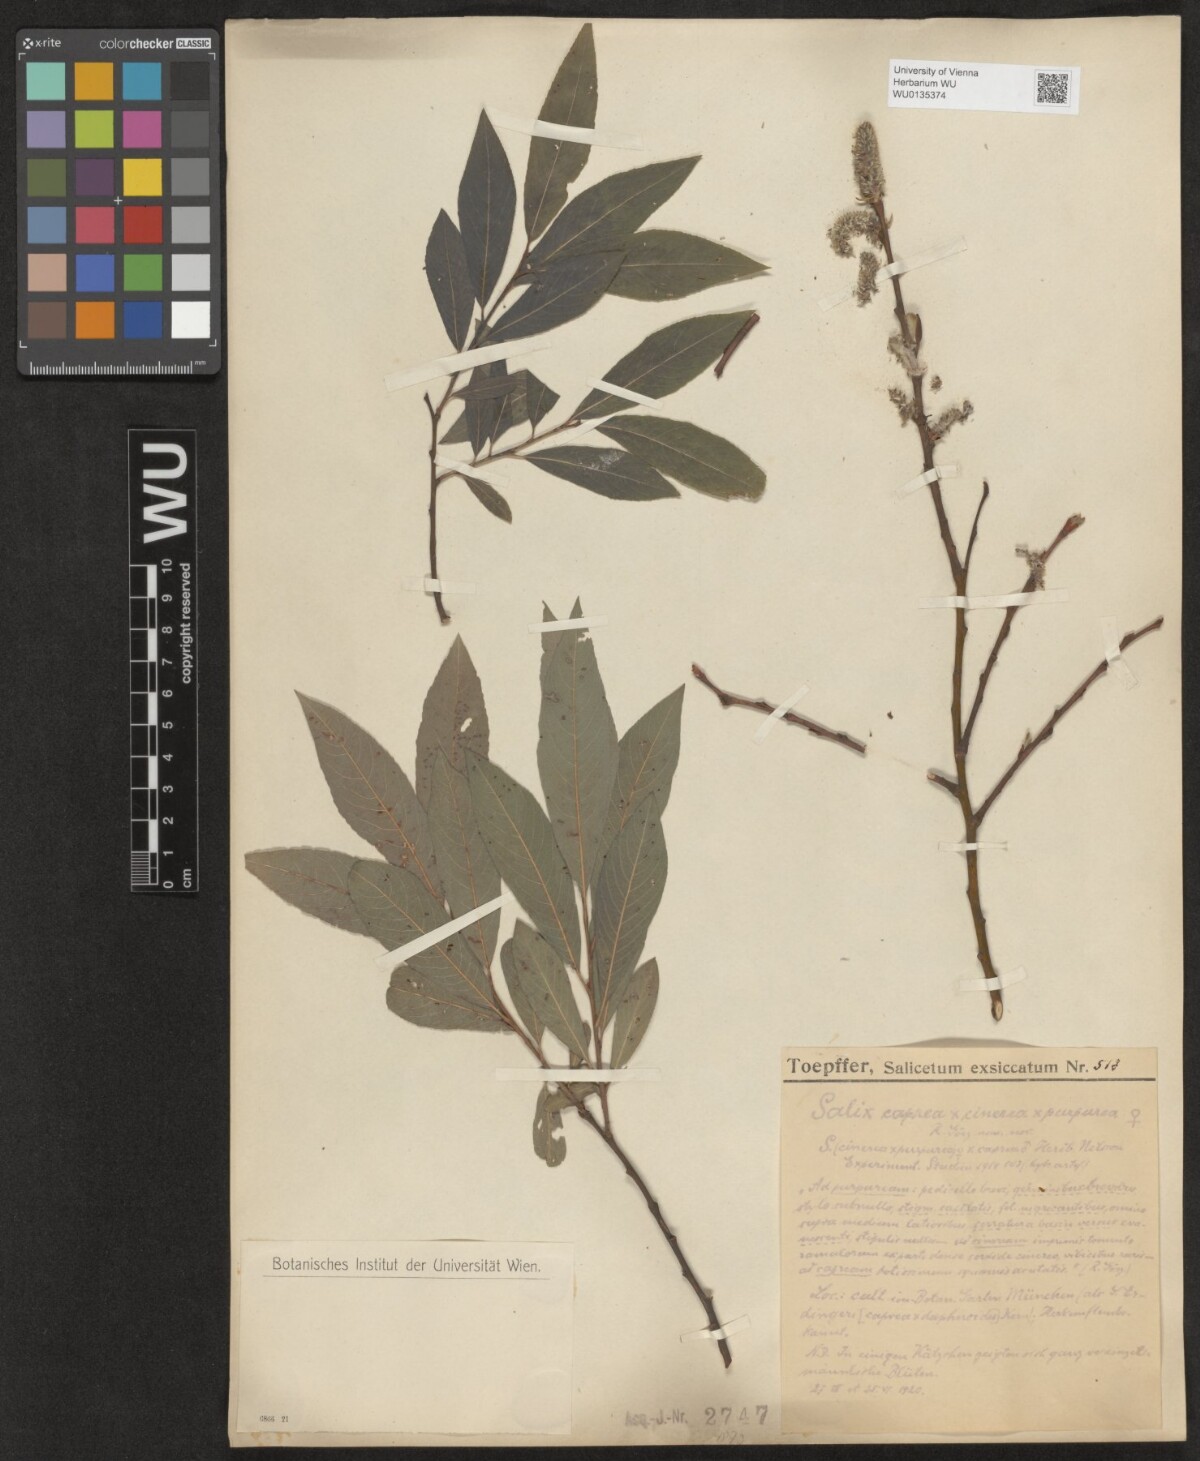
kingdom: Plantae
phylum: Tracheophyta
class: Magnoliopsida
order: Malpighiales
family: Salicaceae
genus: Salix
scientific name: Salix
